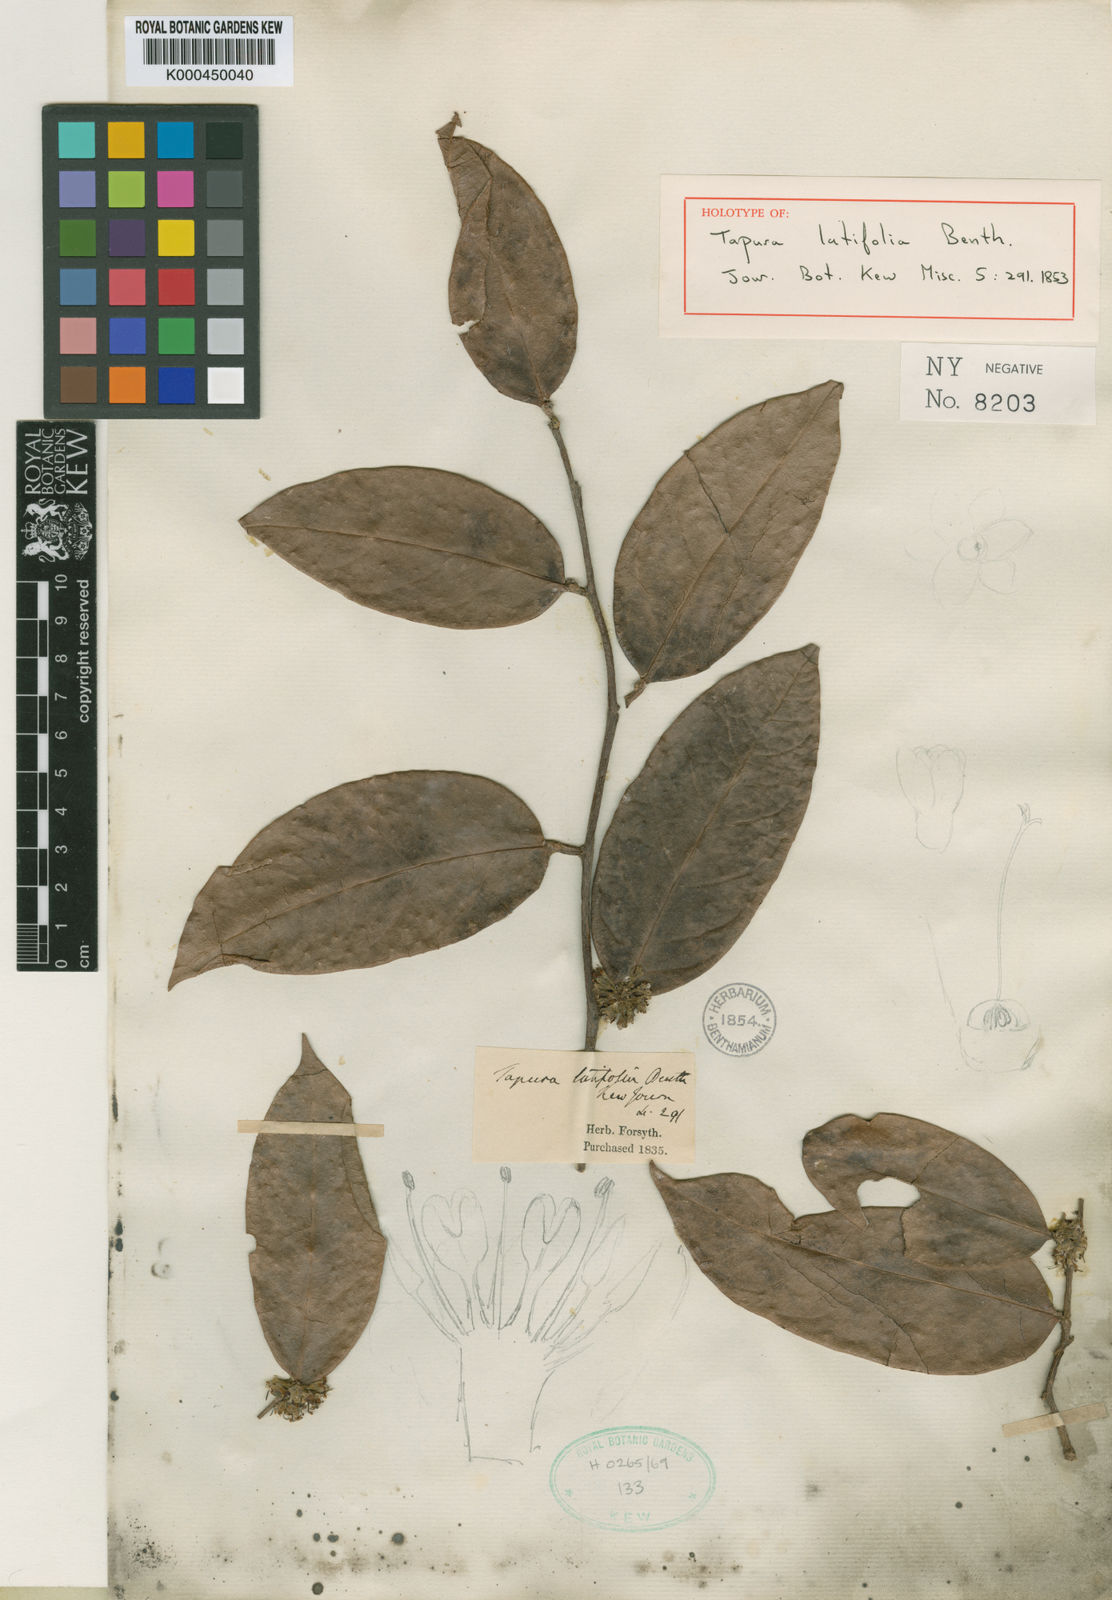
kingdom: Plantae
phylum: Tracheophyta
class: Magnoliopsida
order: Malpighiales
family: Dichapetalaceae
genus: Tapura
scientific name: Tapura latifolia
